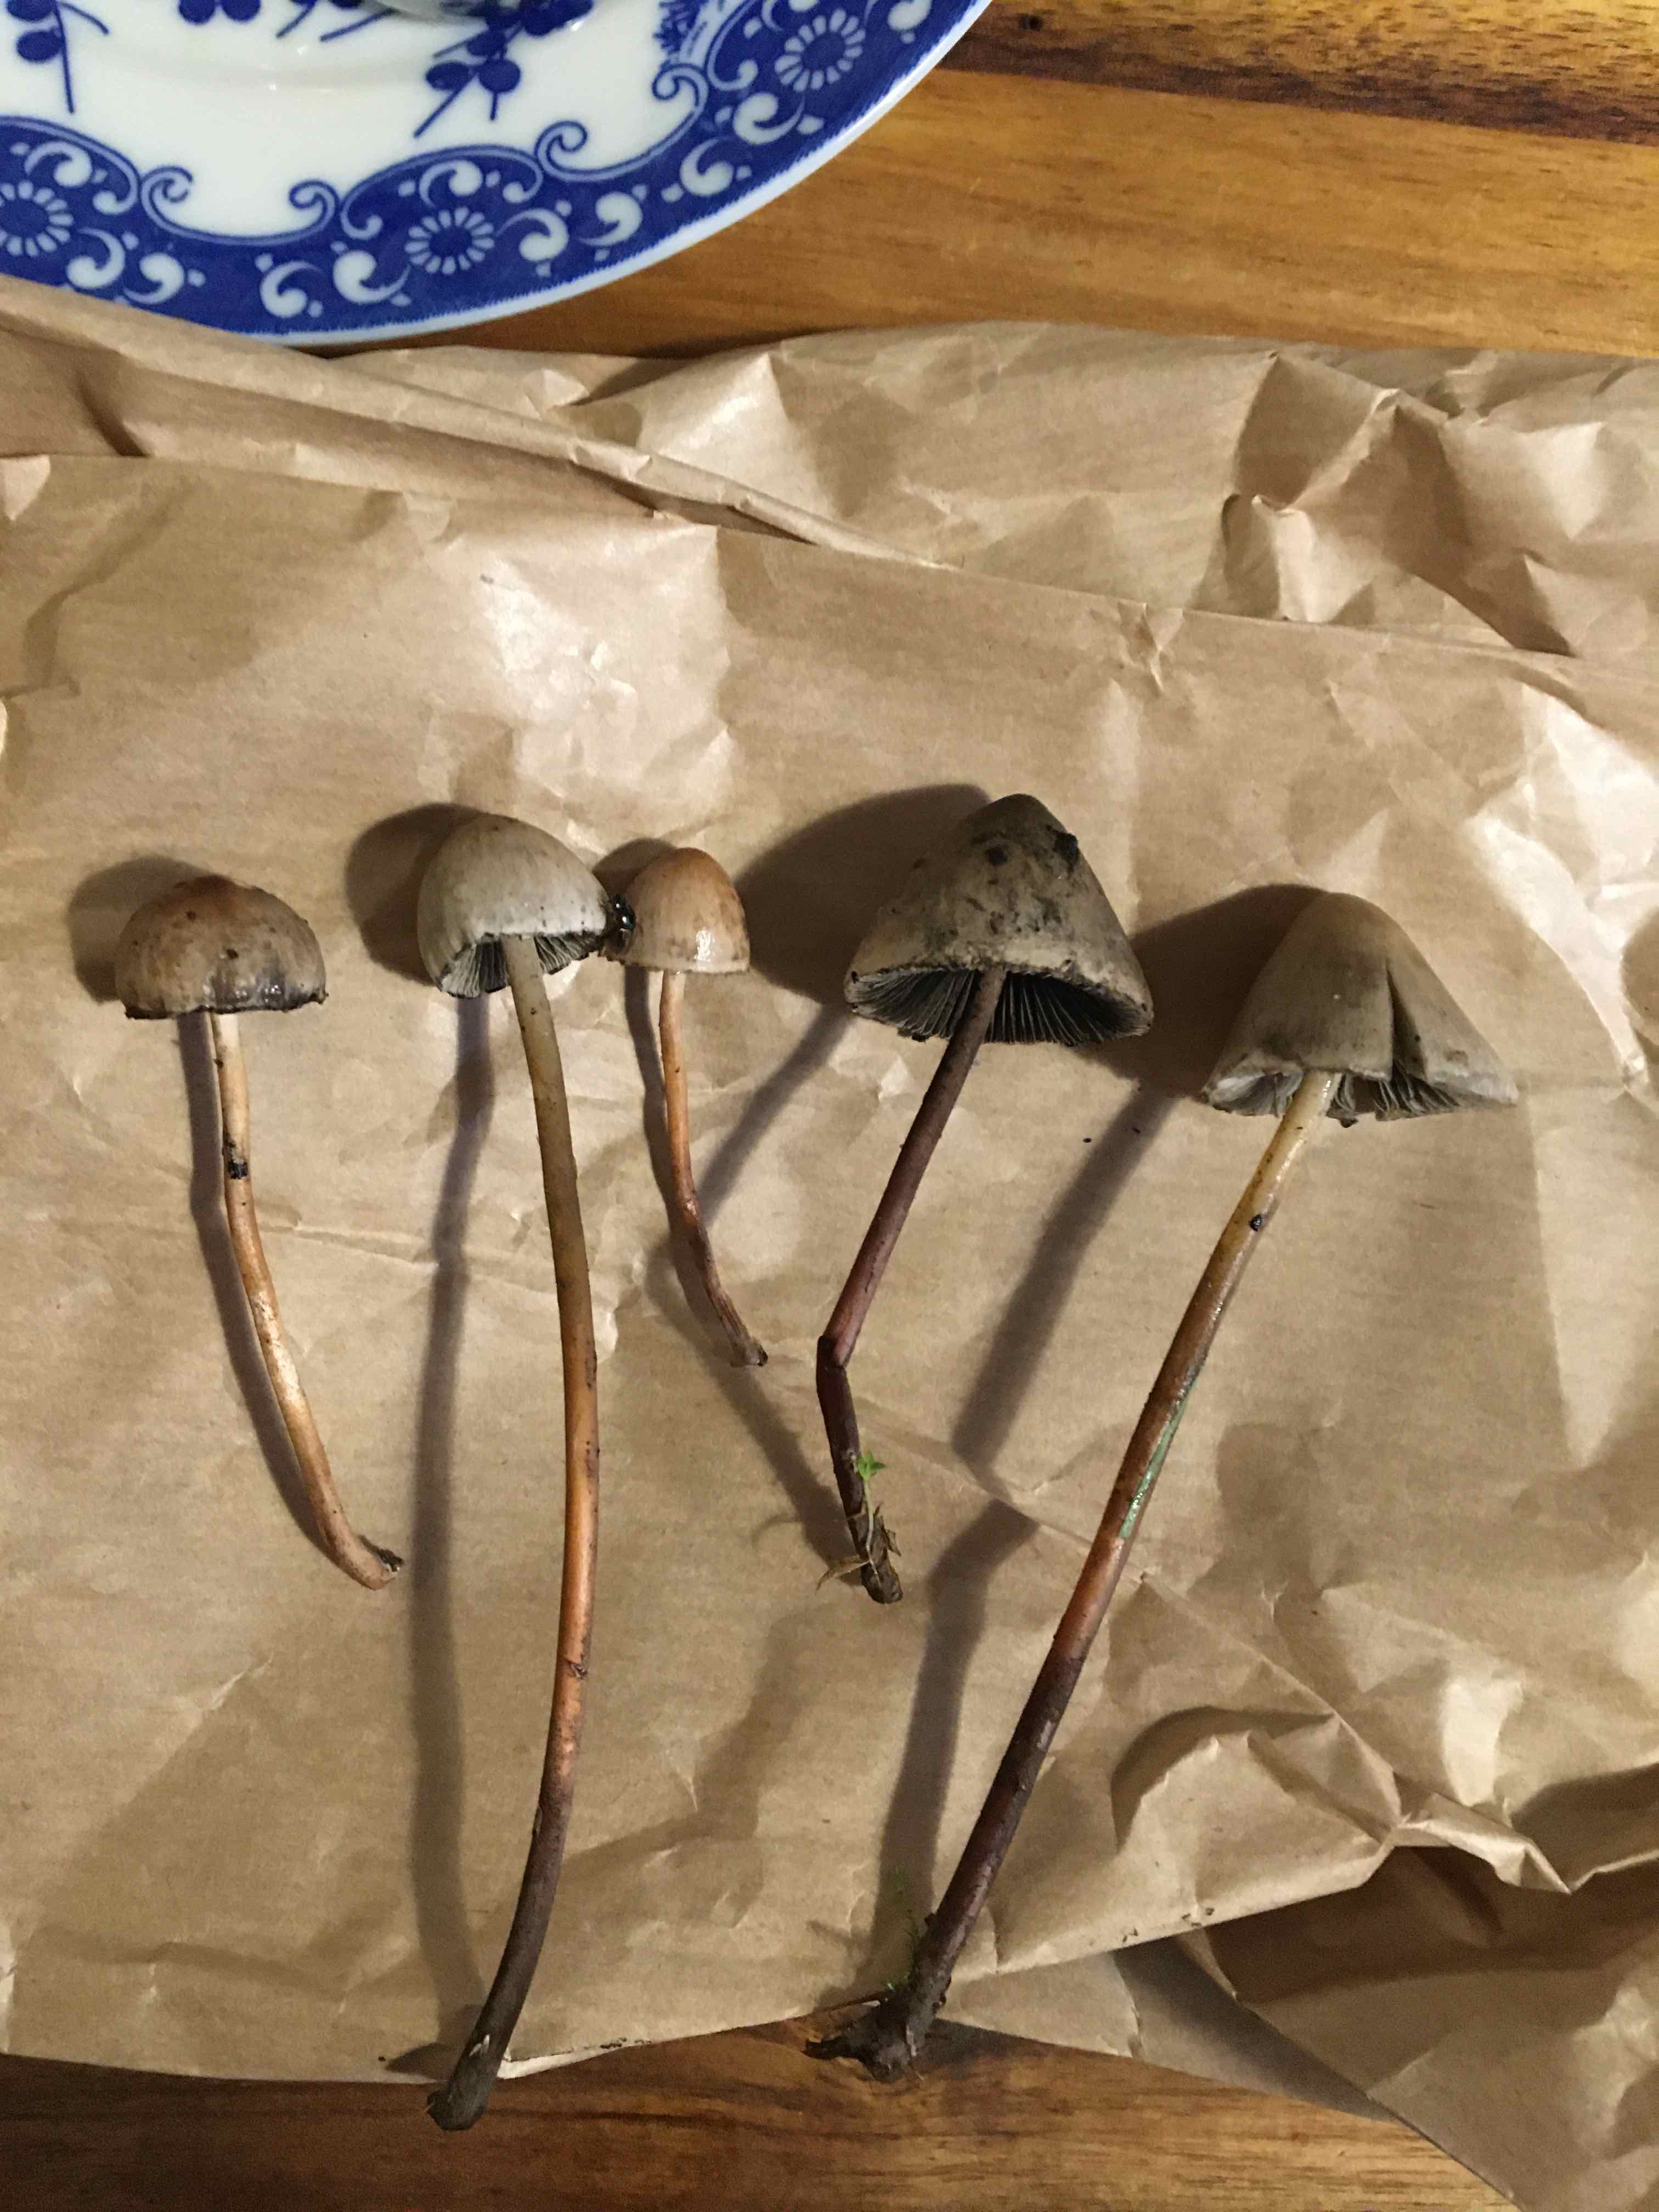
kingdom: Fungi
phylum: Basidiomycota
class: Agaricomycetes
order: Agaricales
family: Bolbitiaceae
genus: Panaeolus
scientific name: Panaeolus papilionaceus
